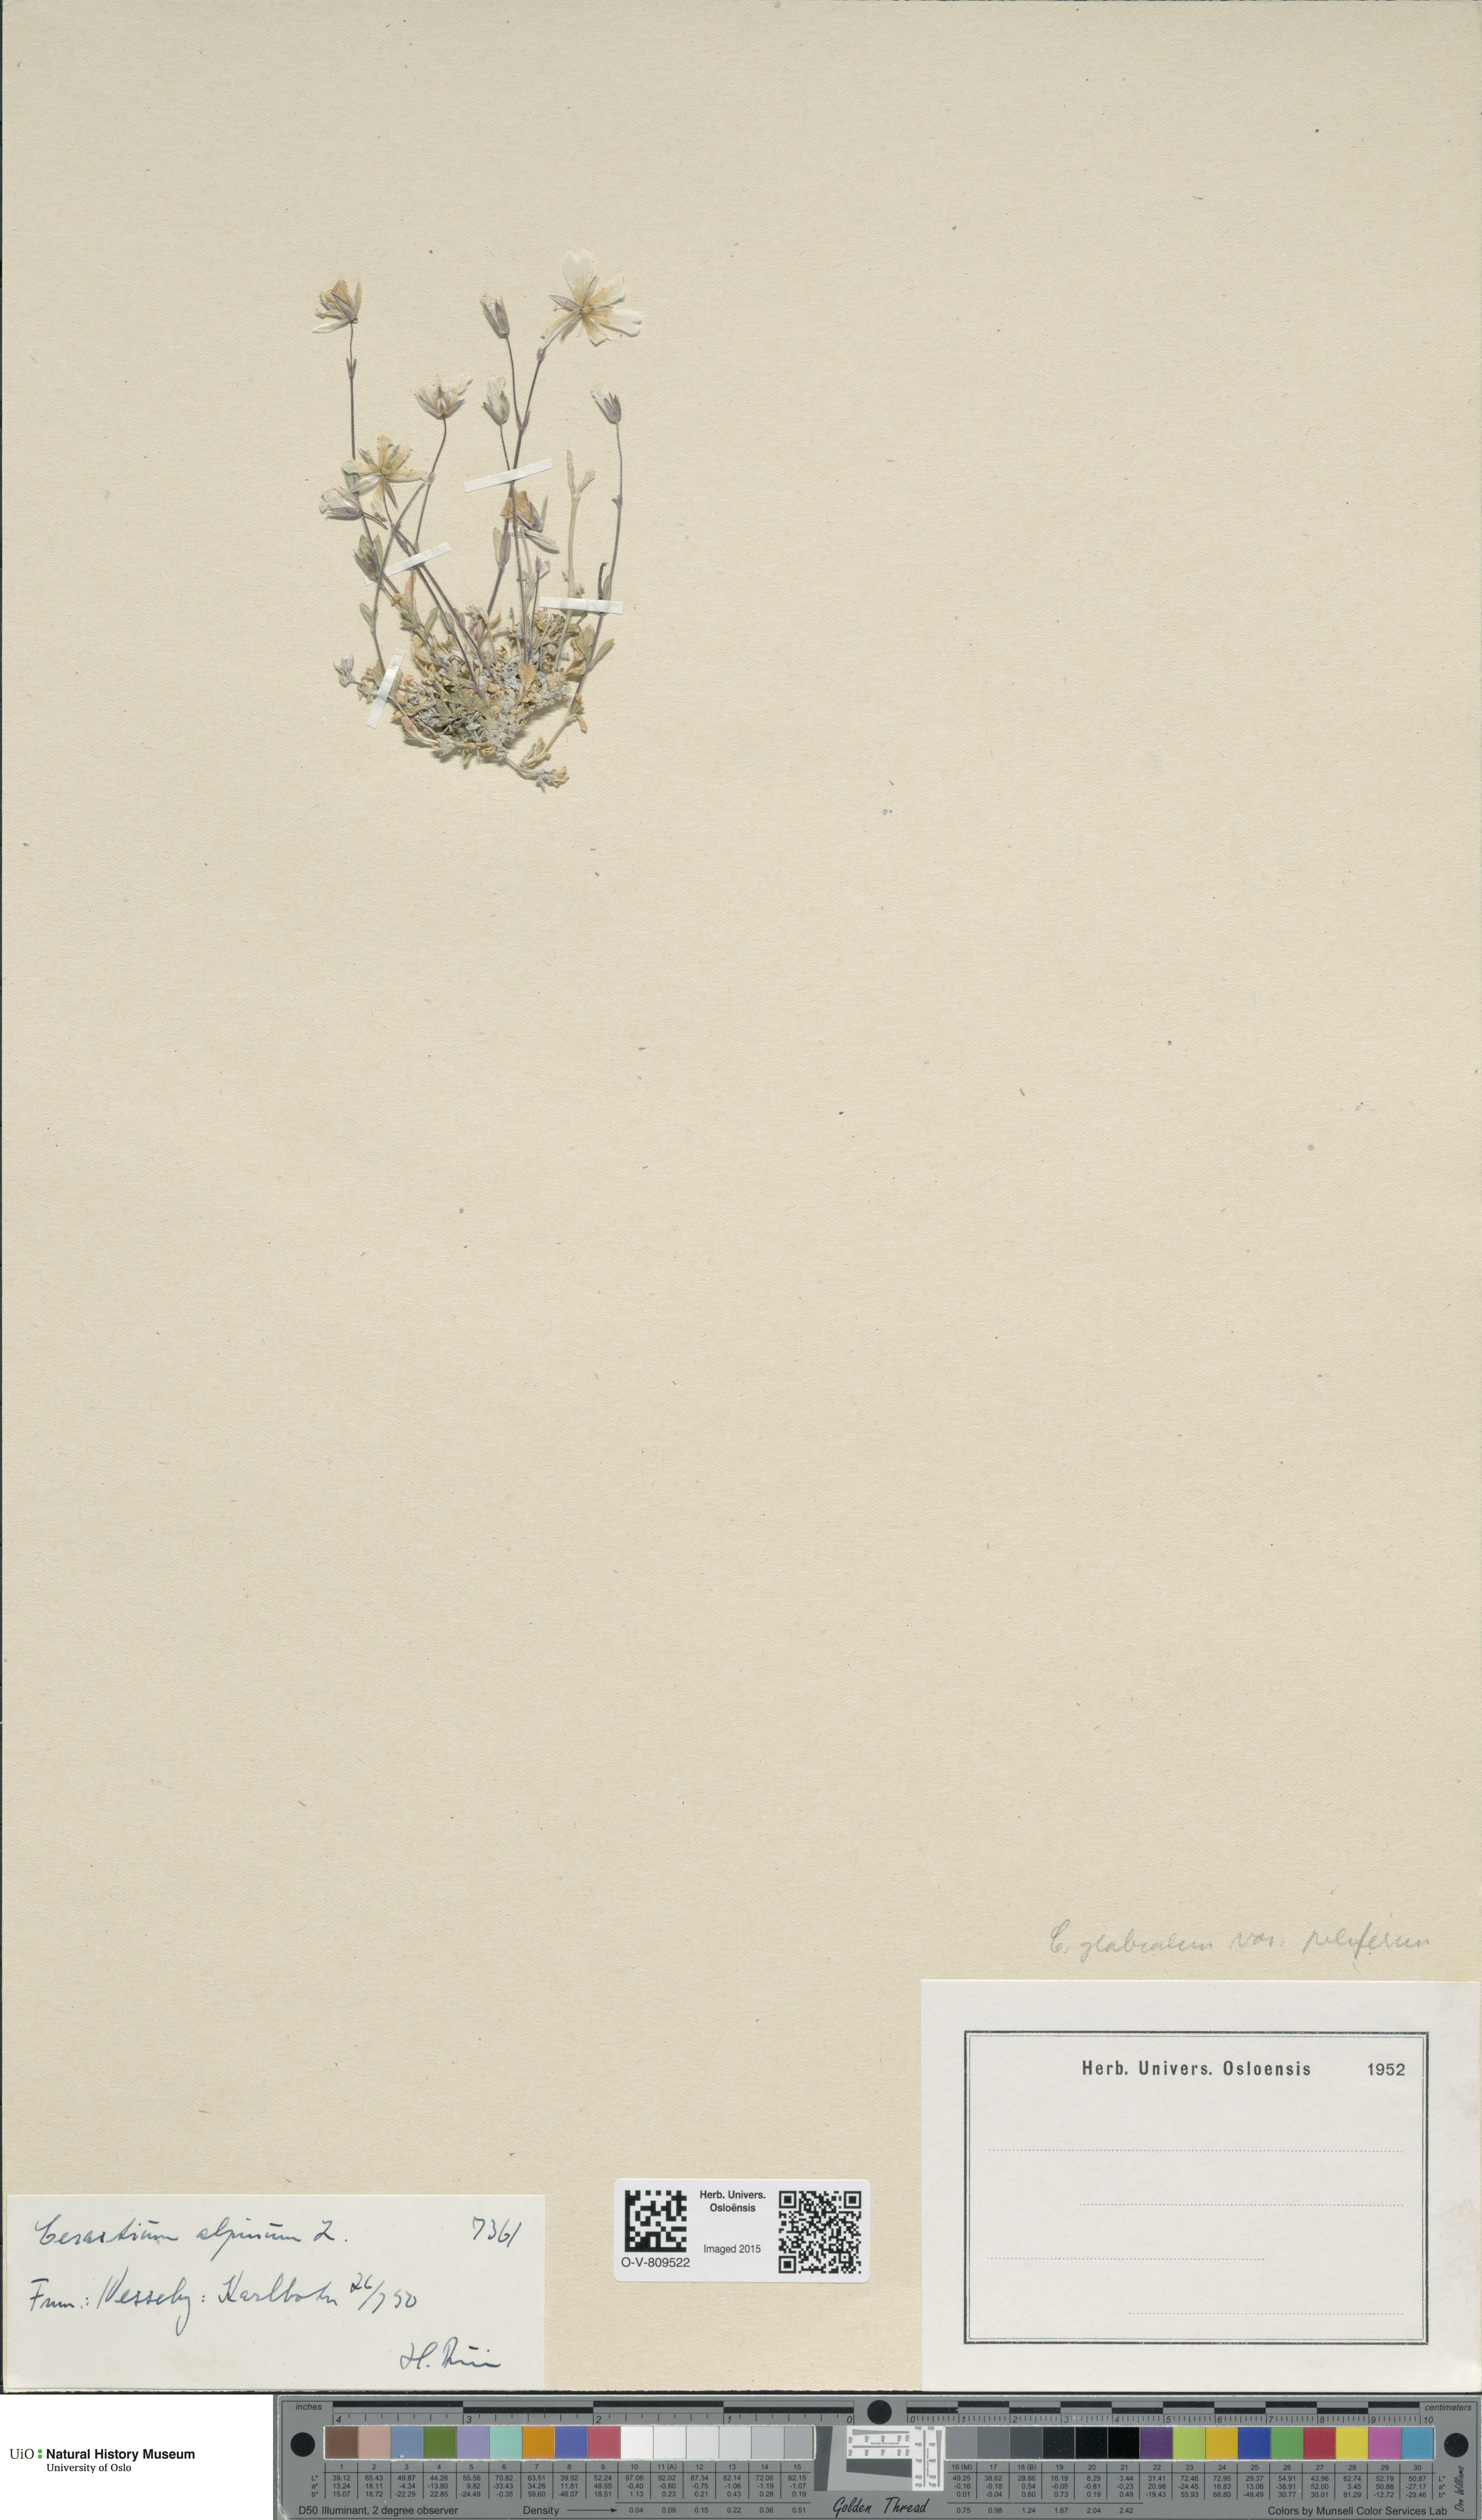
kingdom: Plantae
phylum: Tracheophyta
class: Magnoliopsida
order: Caryophyllales
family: Caryophyllaceae
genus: Cerastium
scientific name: Cerastium alpinum
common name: Alpine mouse-ear
